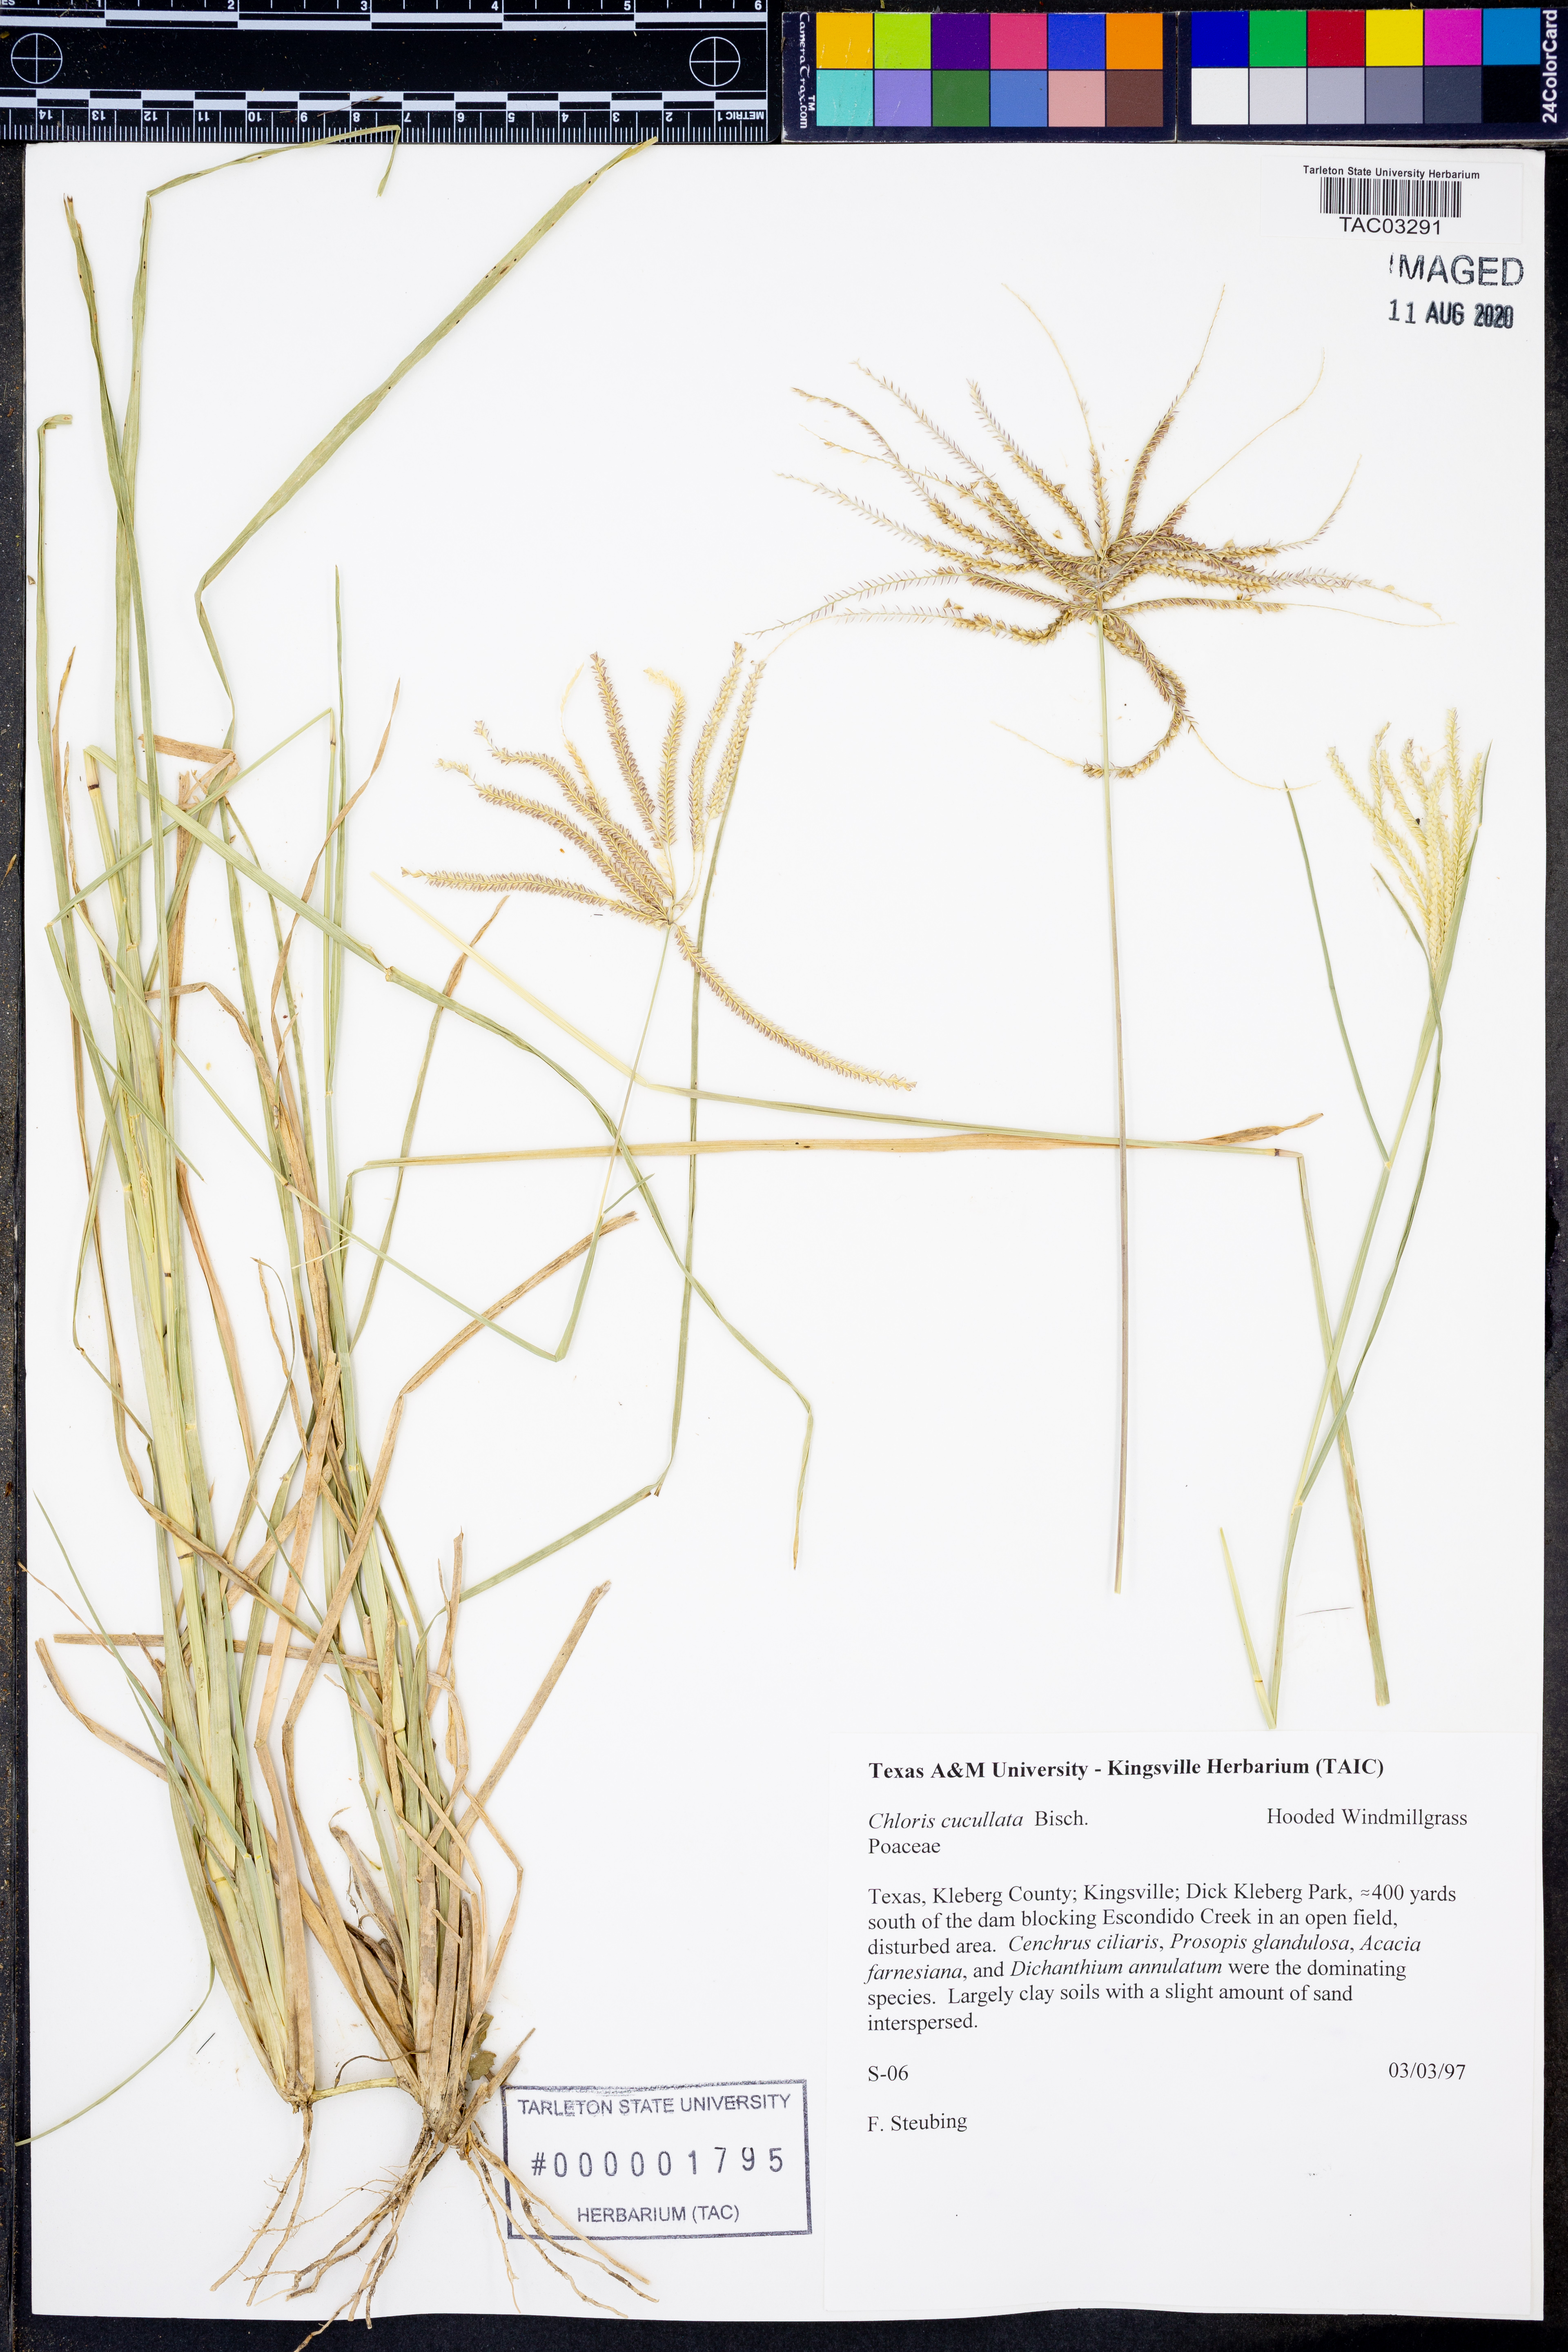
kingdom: Plantae
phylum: Tracheophyta
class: Liliopsida
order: Poales
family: Poaceae
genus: Chloris
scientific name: Chloris cucullata
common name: Hooded windmill grass
